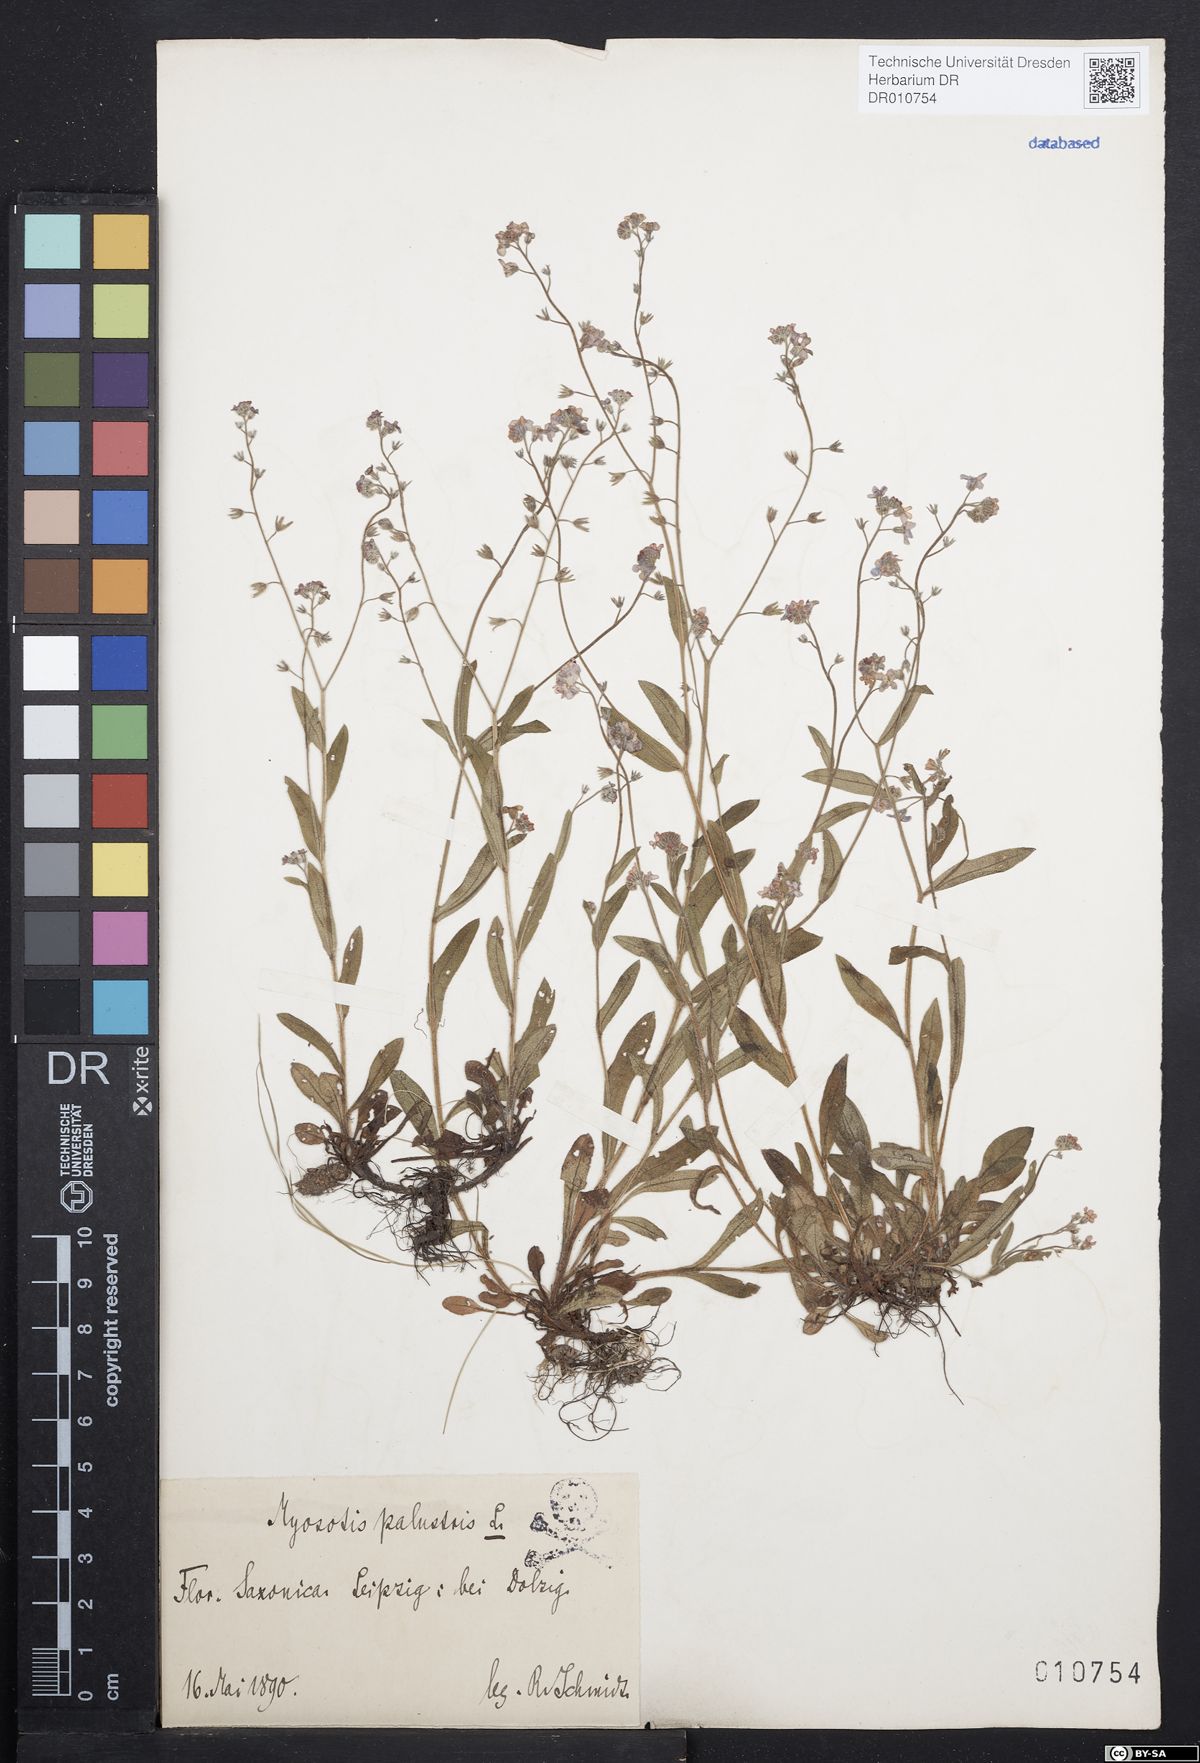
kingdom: Plantae
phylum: Tracheophyta
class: Magnoliopsida
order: Boraginales
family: Boraginaceae
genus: Myosotis
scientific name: Myosotis scorpioides
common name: Water forget-me-not
